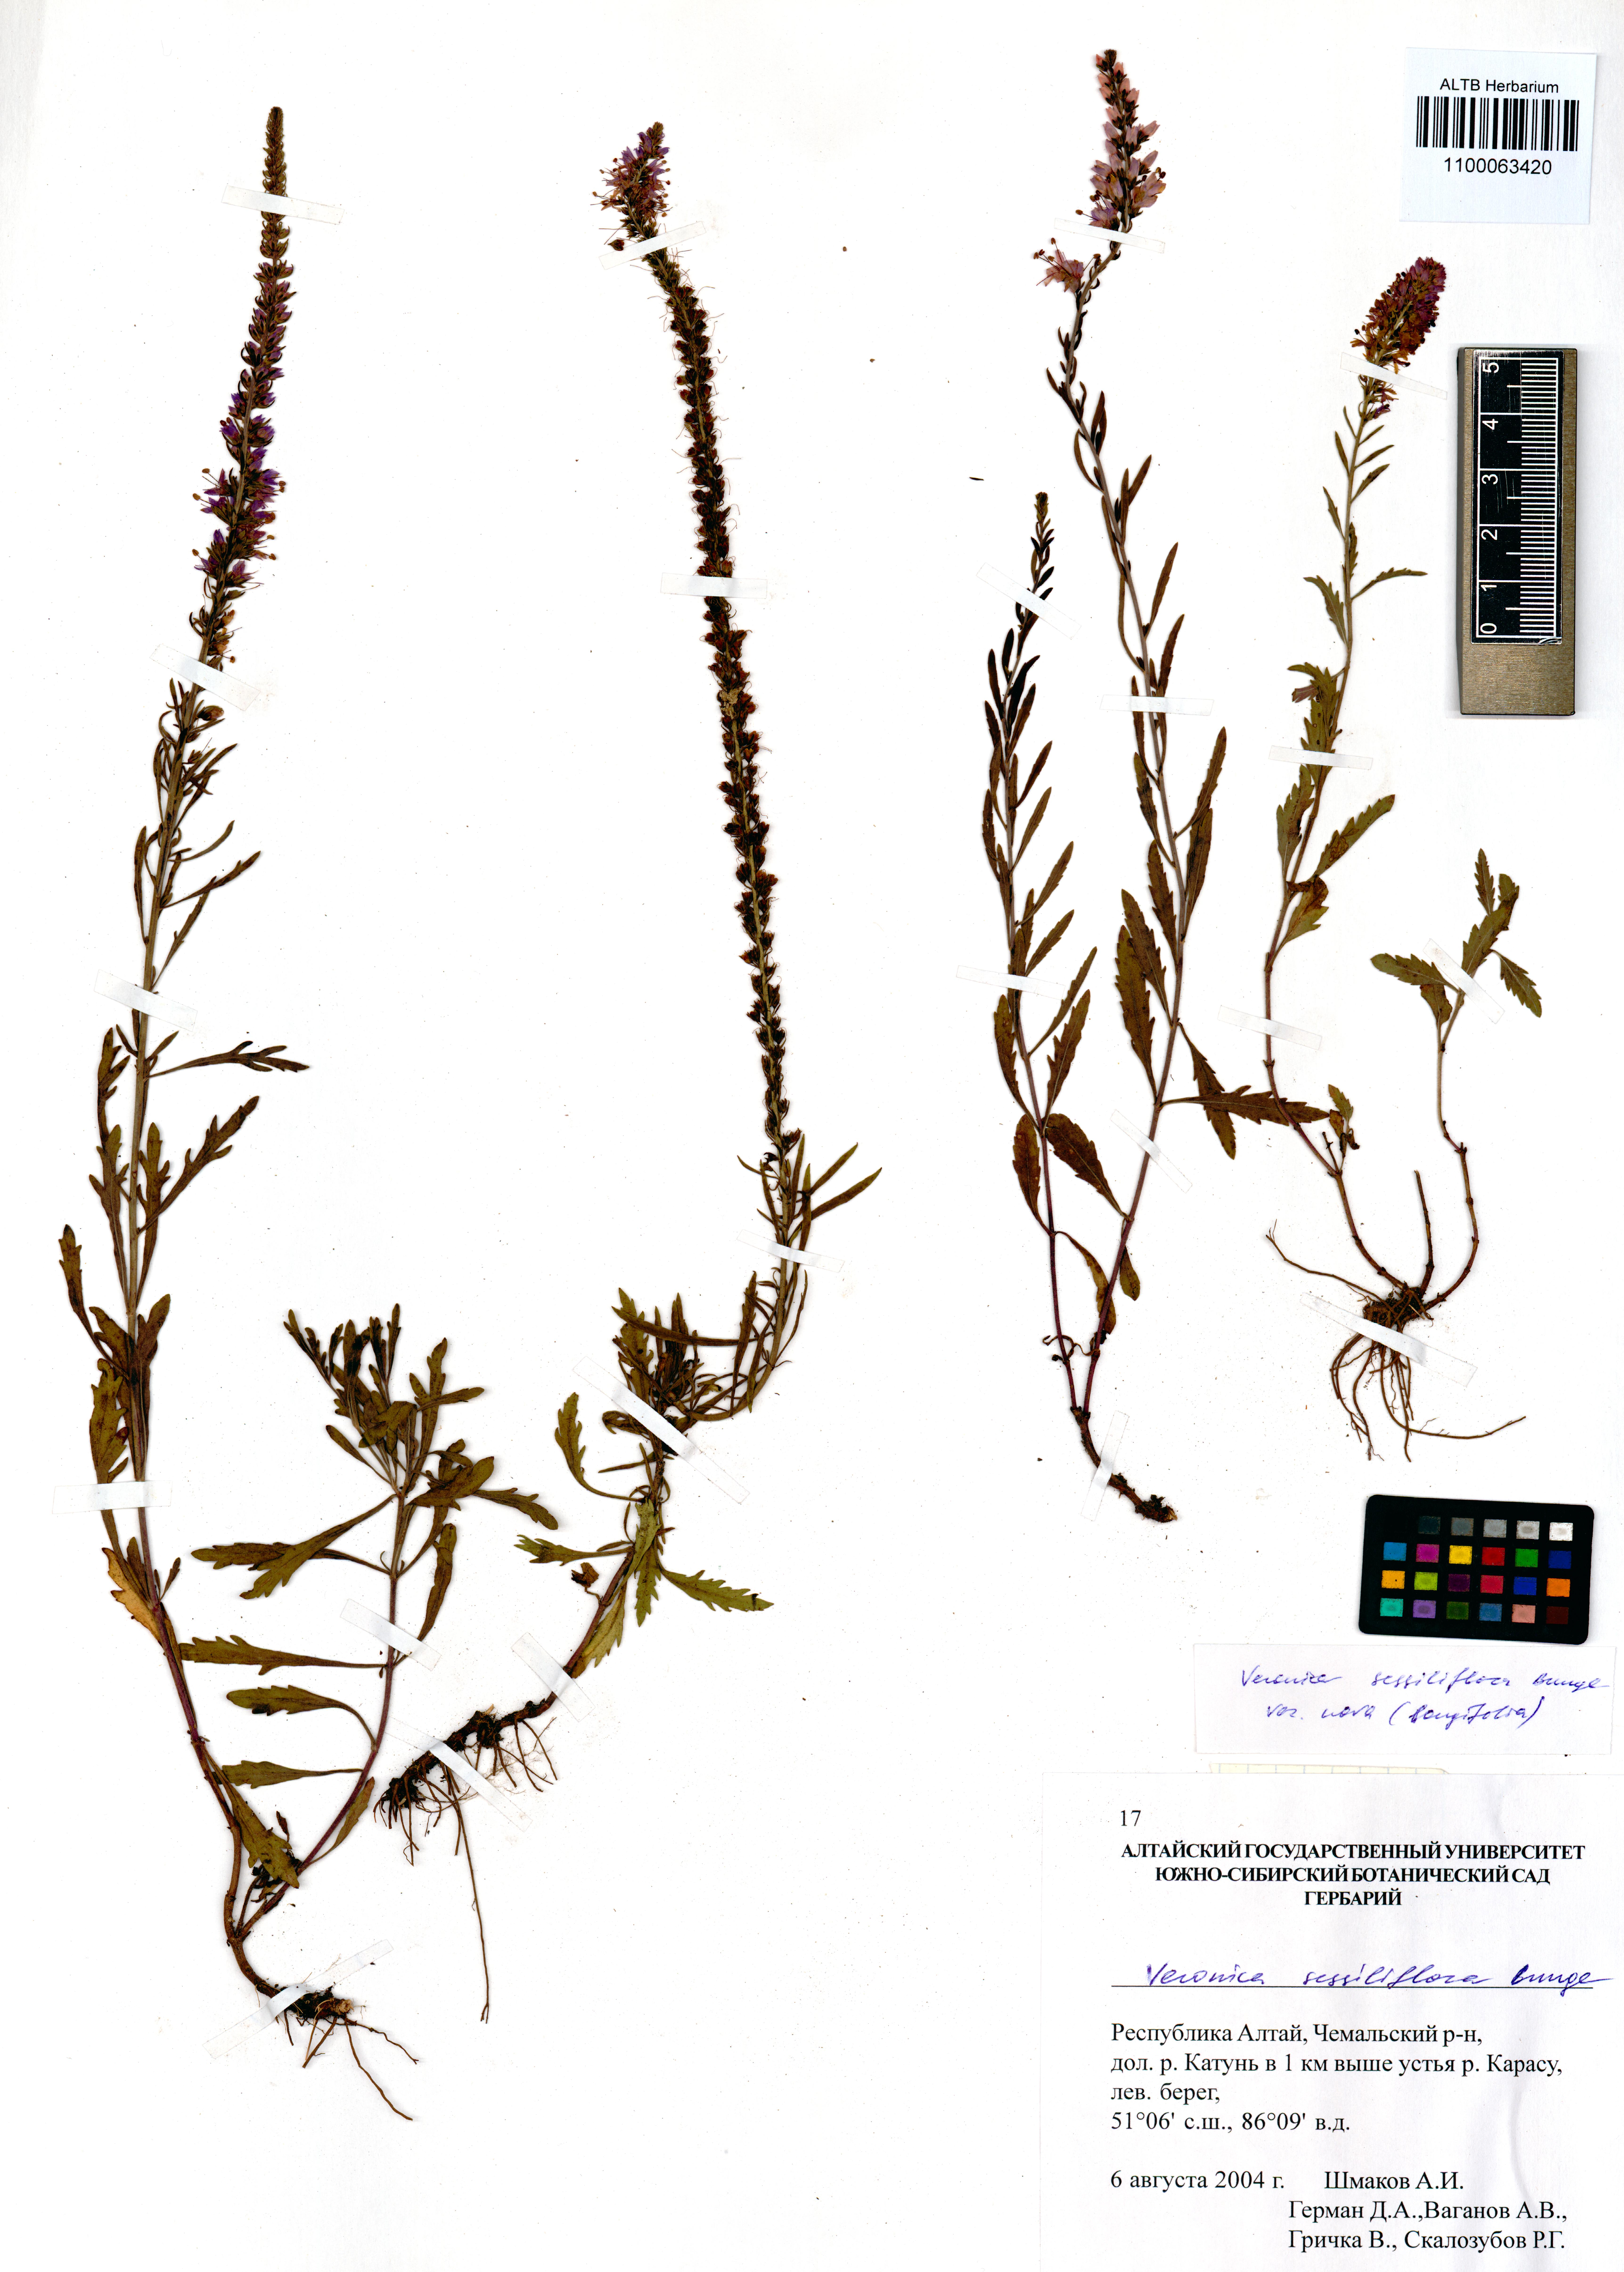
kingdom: Plantae
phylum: Tracheophyta
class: Magnoliopsida
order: Lamiales
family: Plantaginaceae
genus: Veronica
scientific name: Veronica sessiliflora
